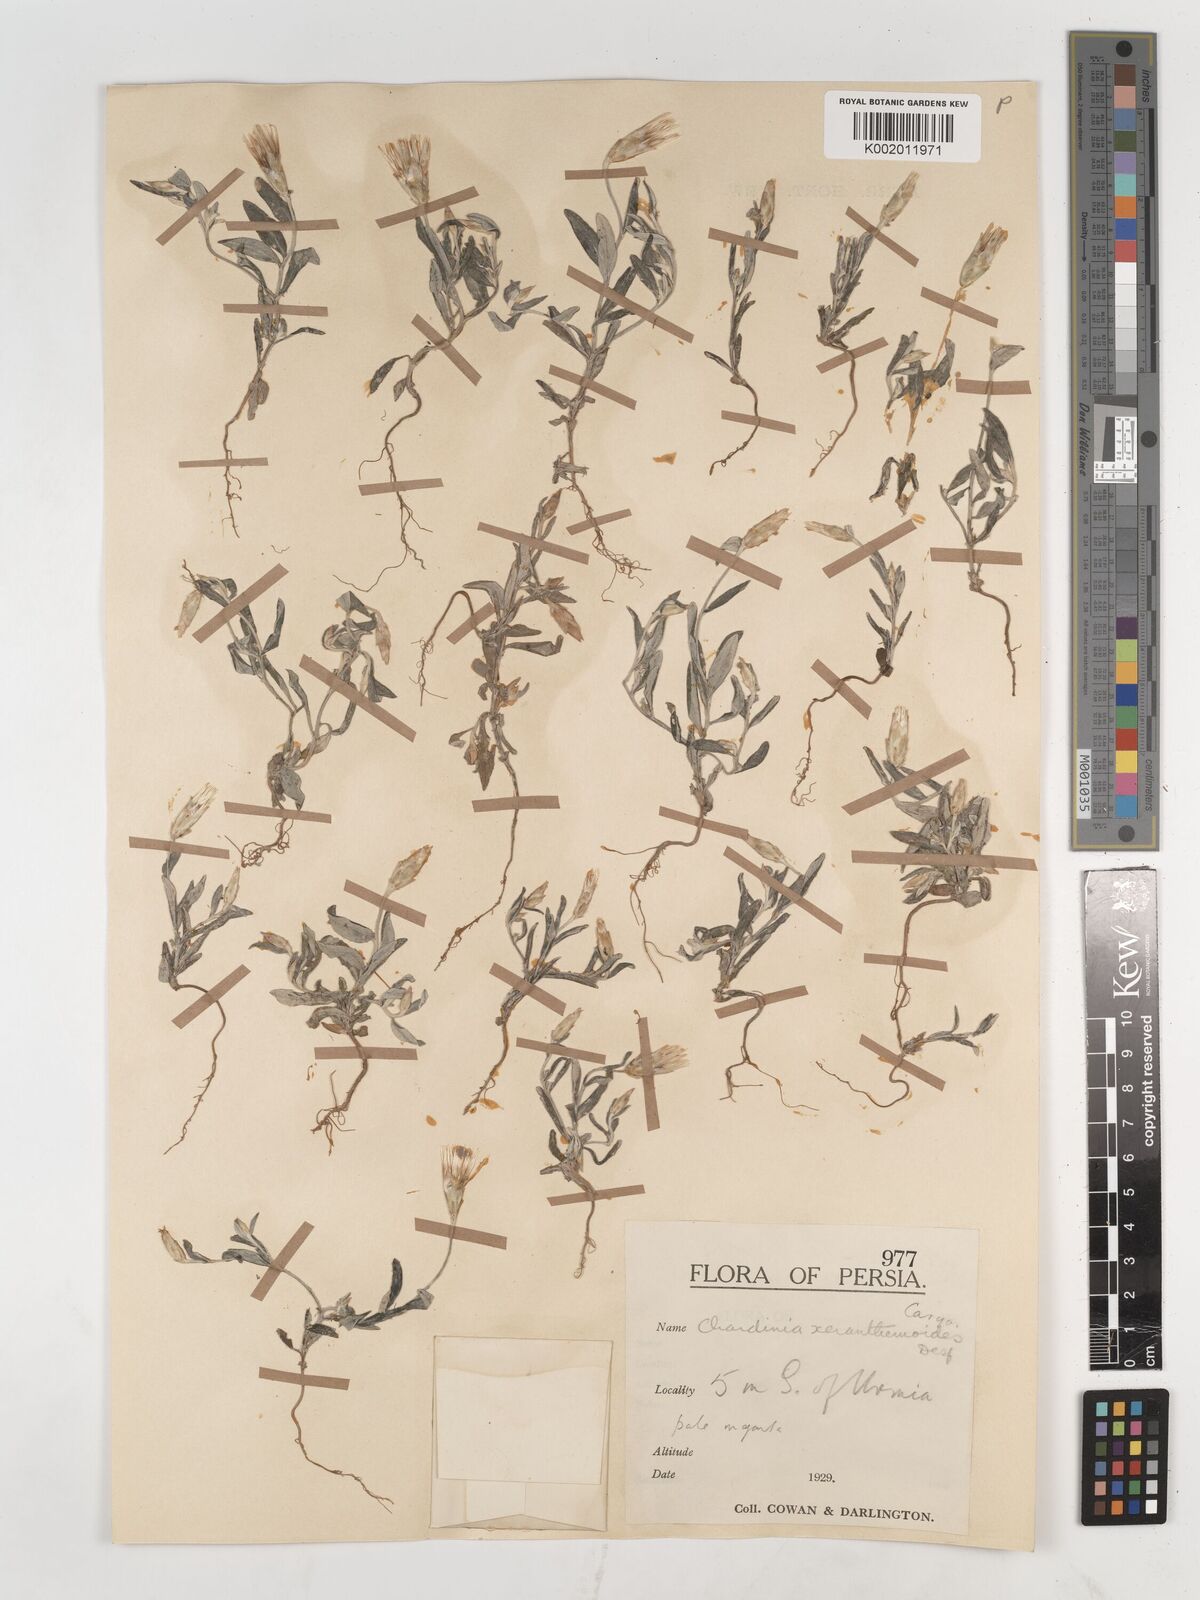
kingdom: Plantae
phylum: Tracheophyta
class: Magnoliopsida
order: Asterales
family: Asteraceae
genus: Chardinia
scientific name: Chardinia orientalis
